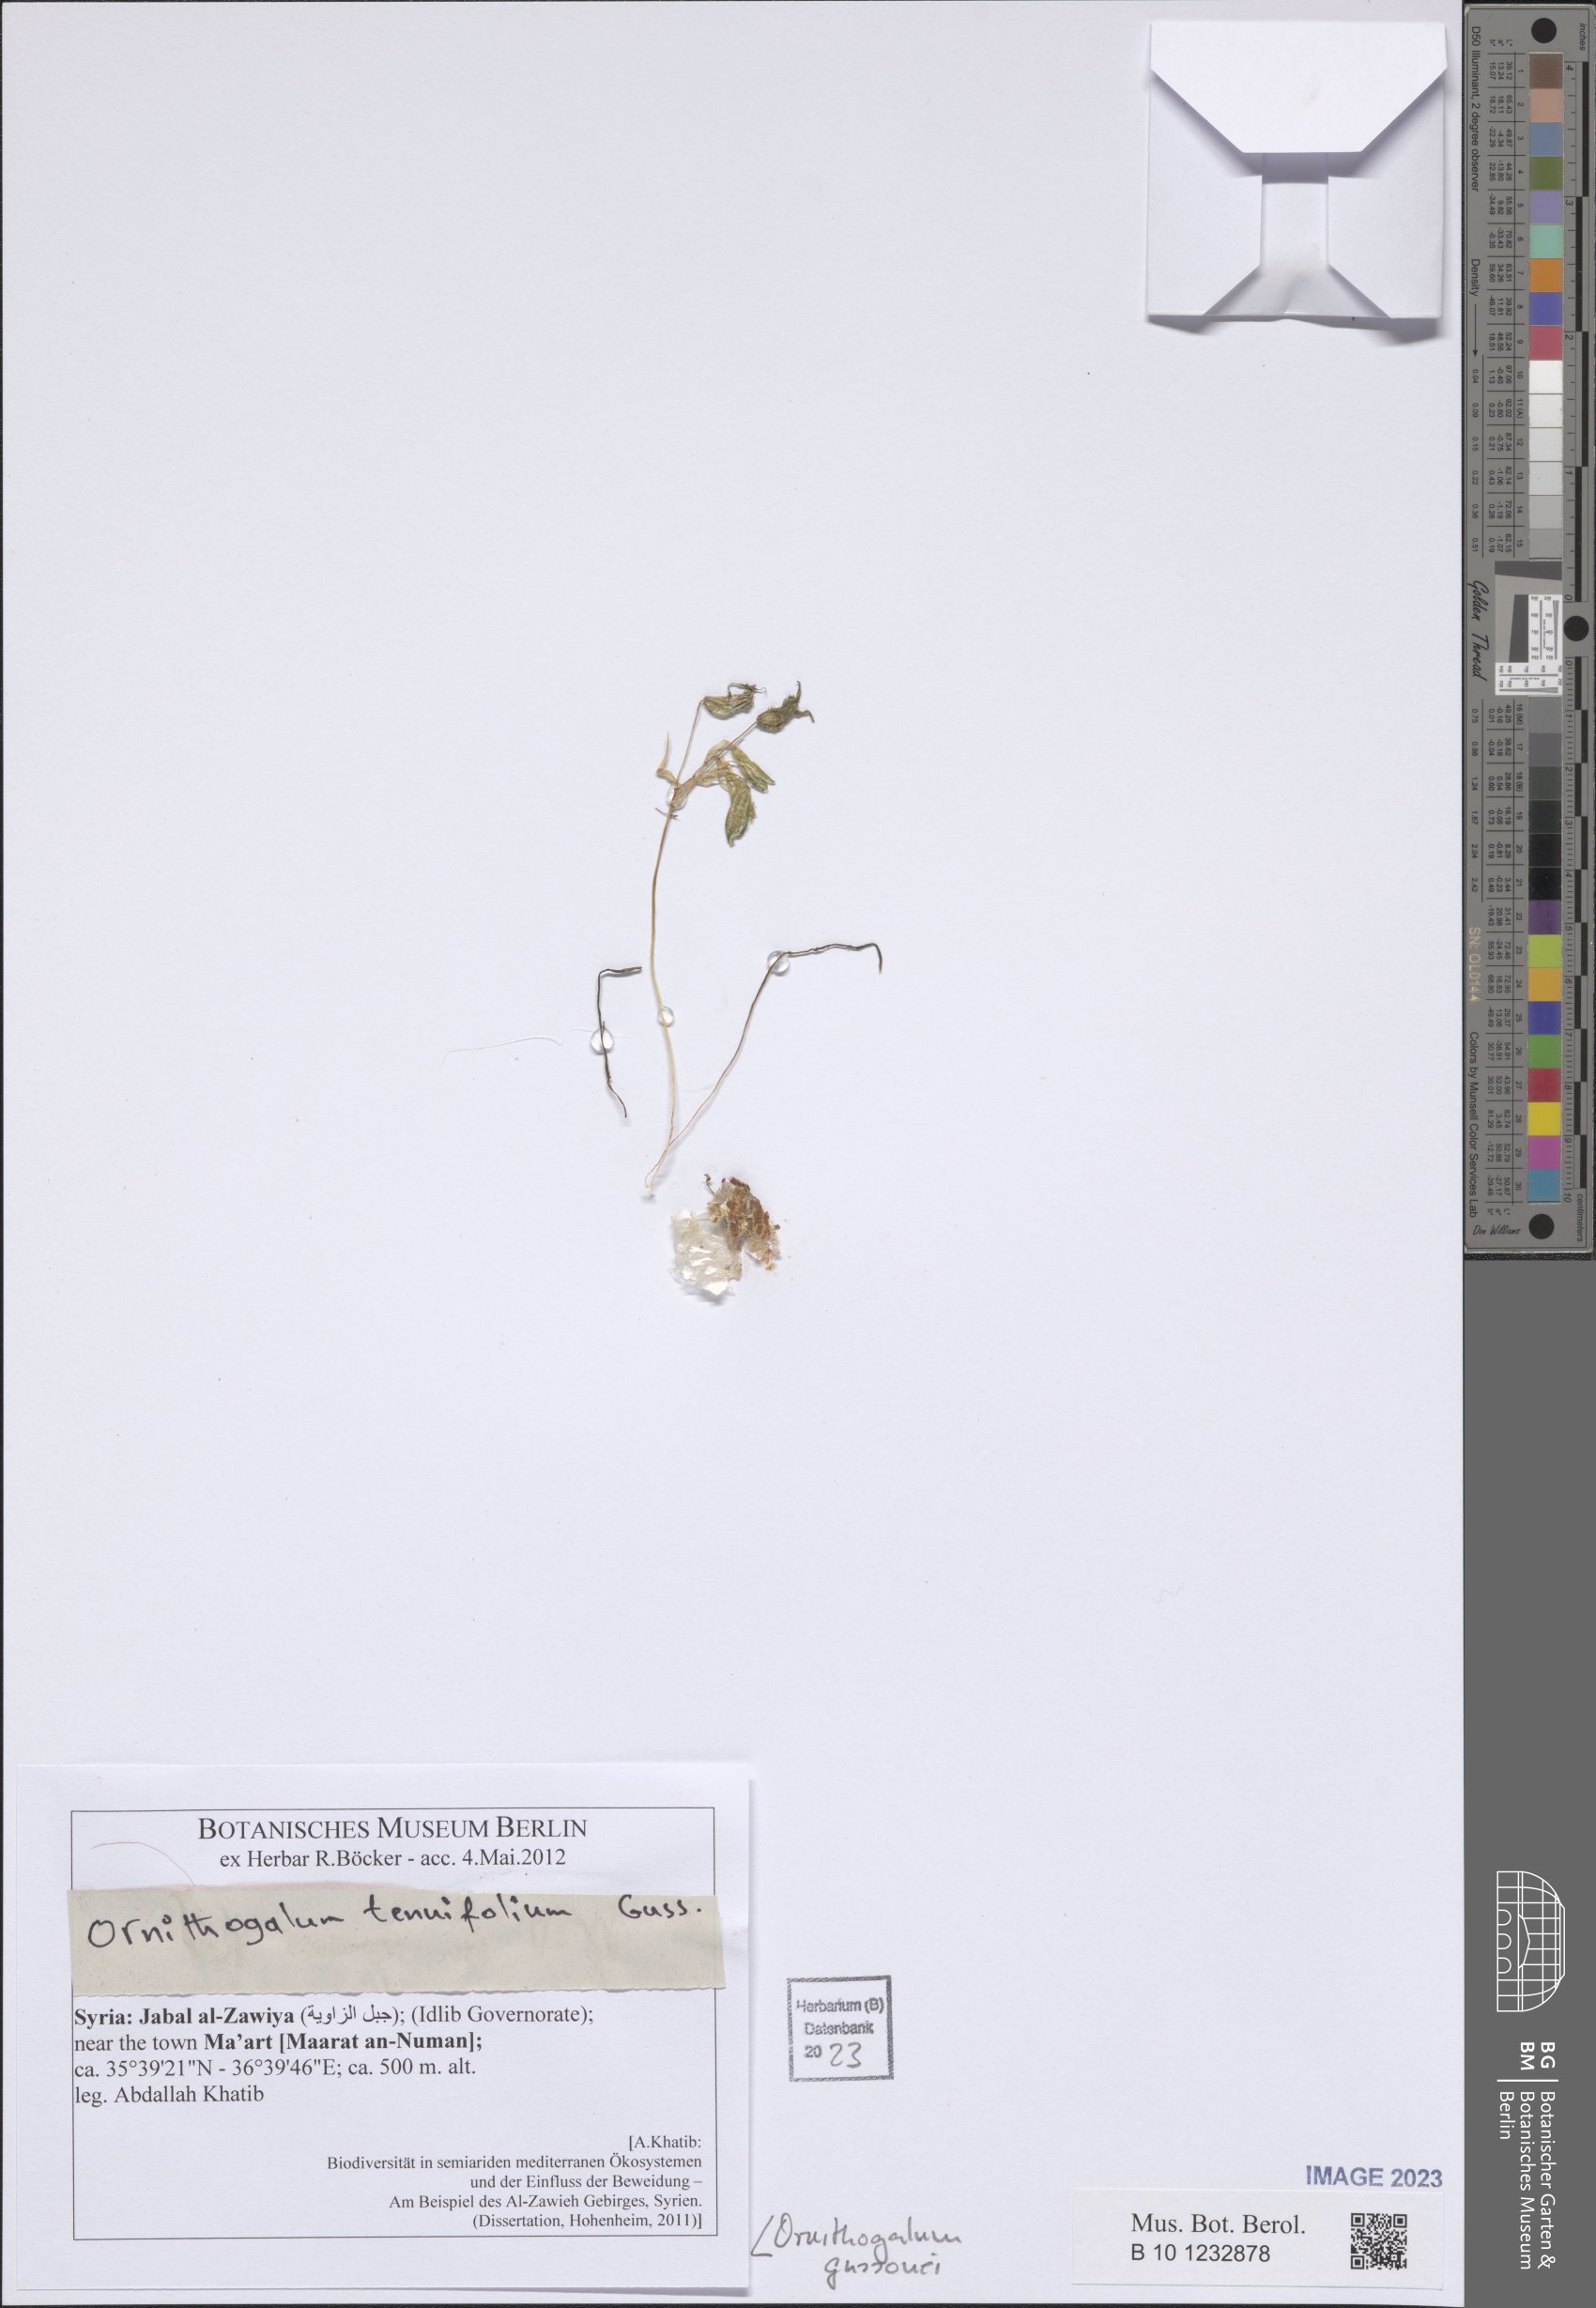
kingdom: Plantae
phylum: Tracheophyta
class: Liliopsida
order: Asparagales
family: Asparagaceae
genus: Ornithogalum
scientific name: Ornithogalum gussonei
